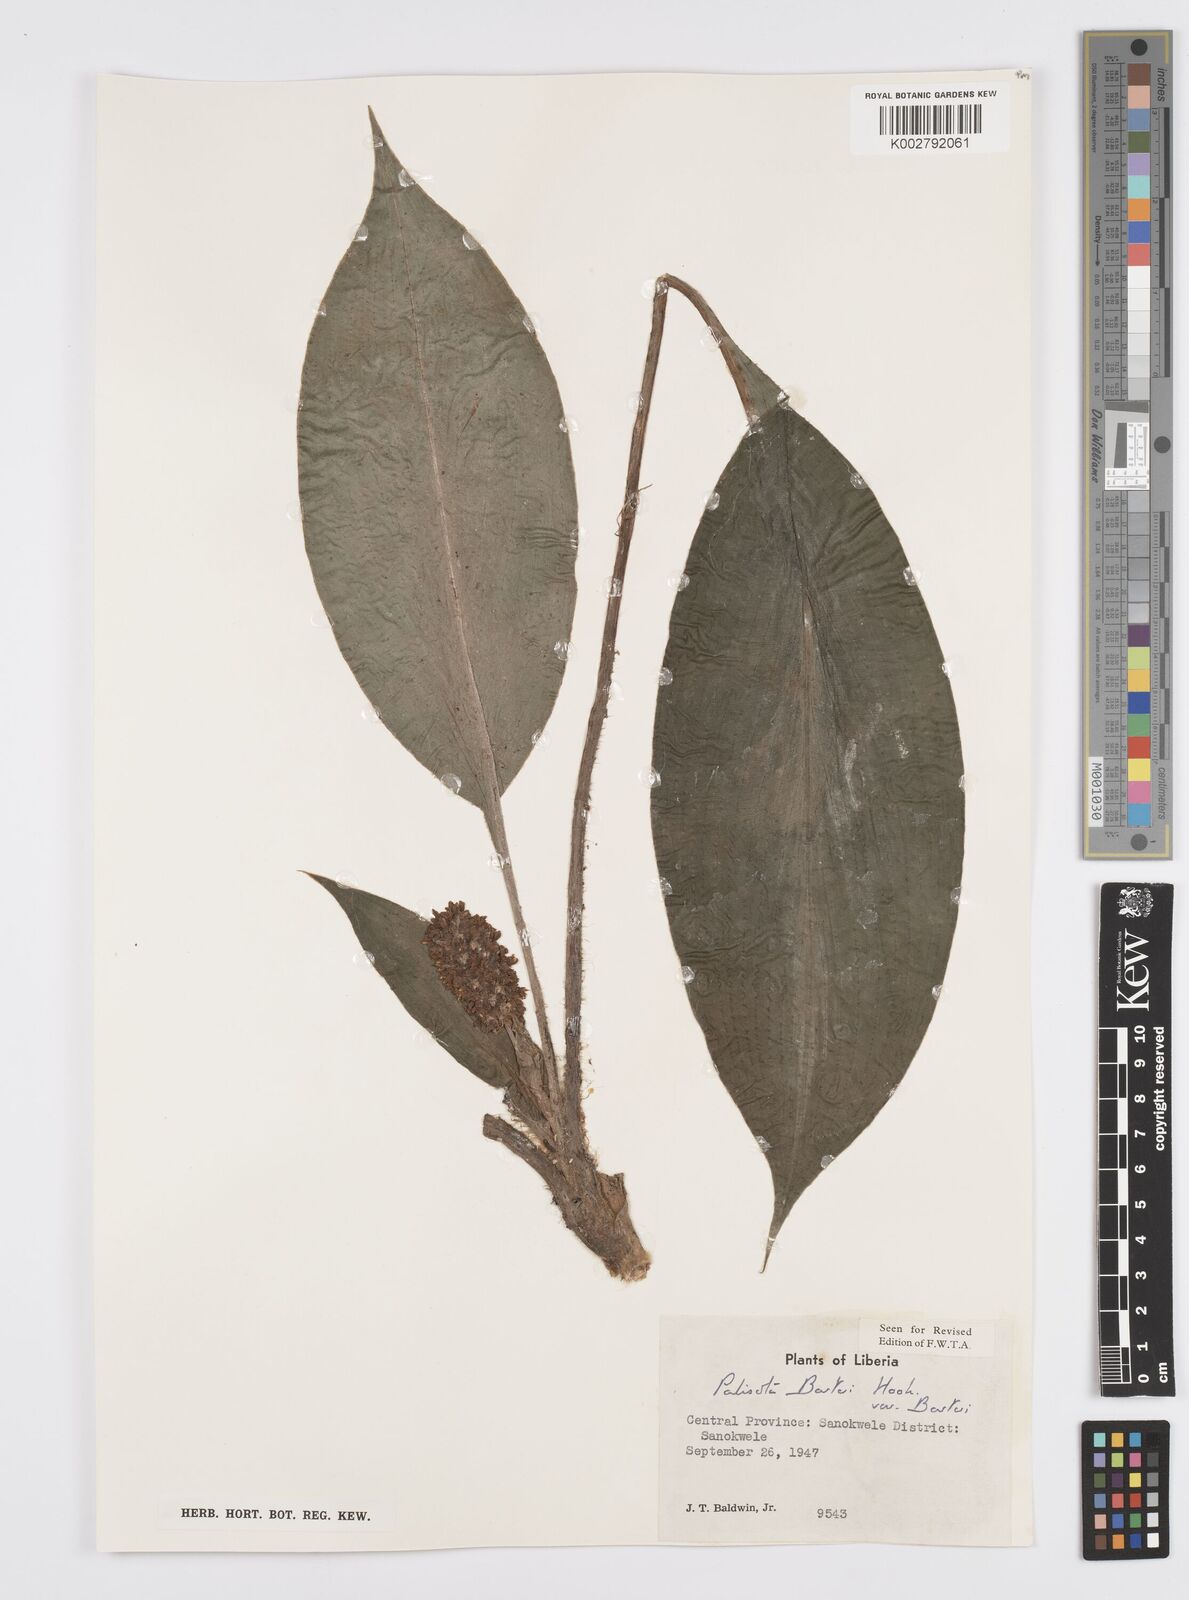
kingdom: Plantae
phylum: Tracheophyta
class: Liliopsida
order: Commelinales
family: Commelinaceae
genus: Palisota
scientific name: Palisota barteri
